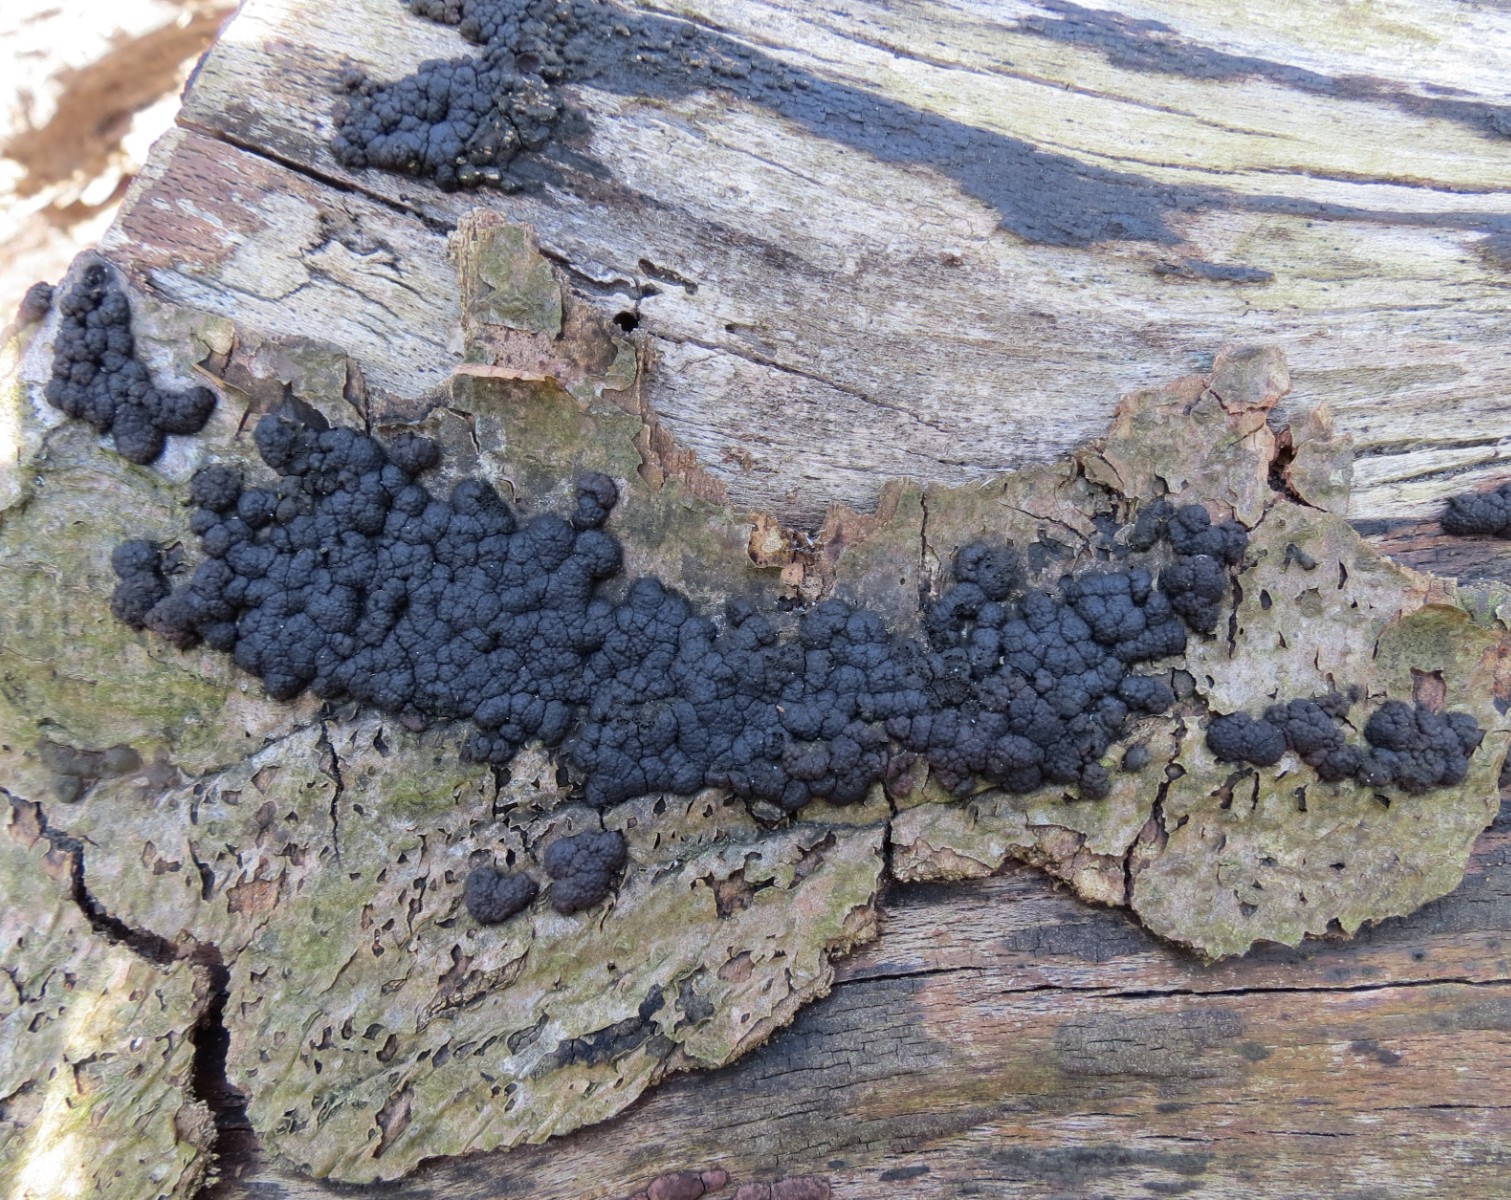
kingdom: Fungi
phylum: Ascomycota
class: Sordariomycetes
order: Xylariales
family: Hypoxylaceae
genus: Jackrogersella
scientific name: Jackrogersella cohaerens
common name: sammenflydende kulbær
